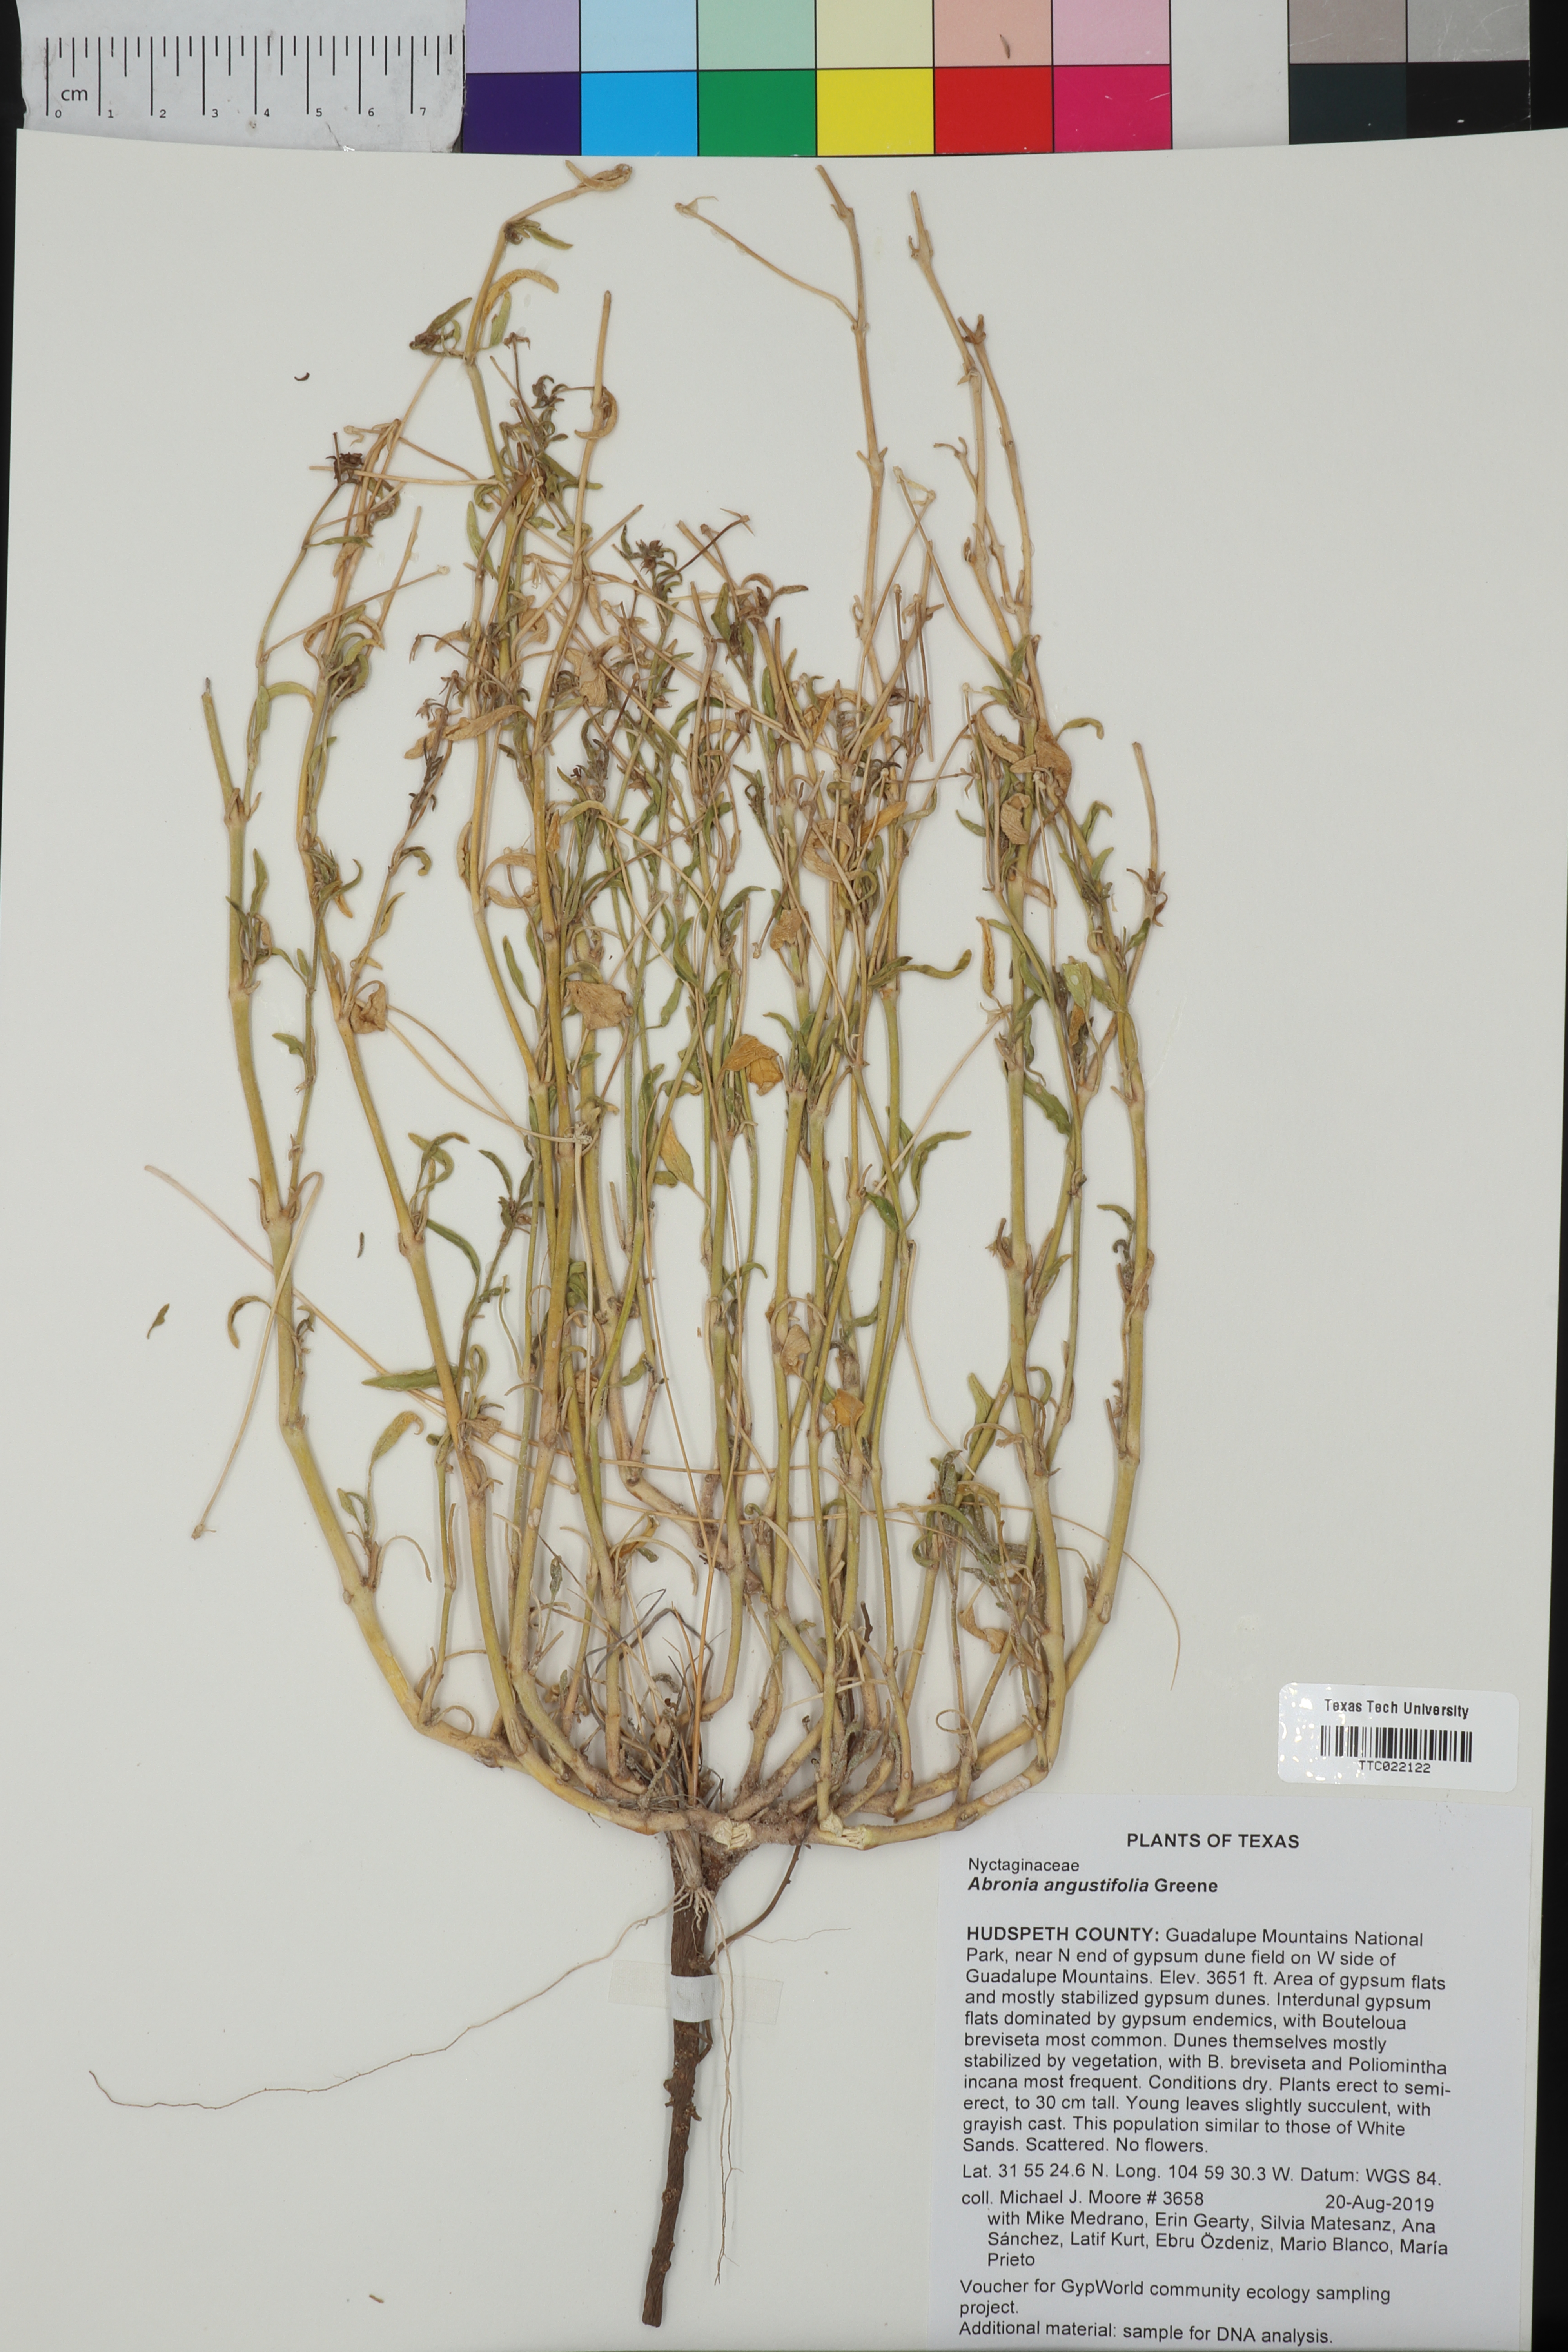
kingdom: Plantae
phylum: Tracheophyta
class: Magnoliopsida
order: Caryophyllales
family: Nyctaginaceae
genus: Abronia
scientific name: Abronia angustifolia
